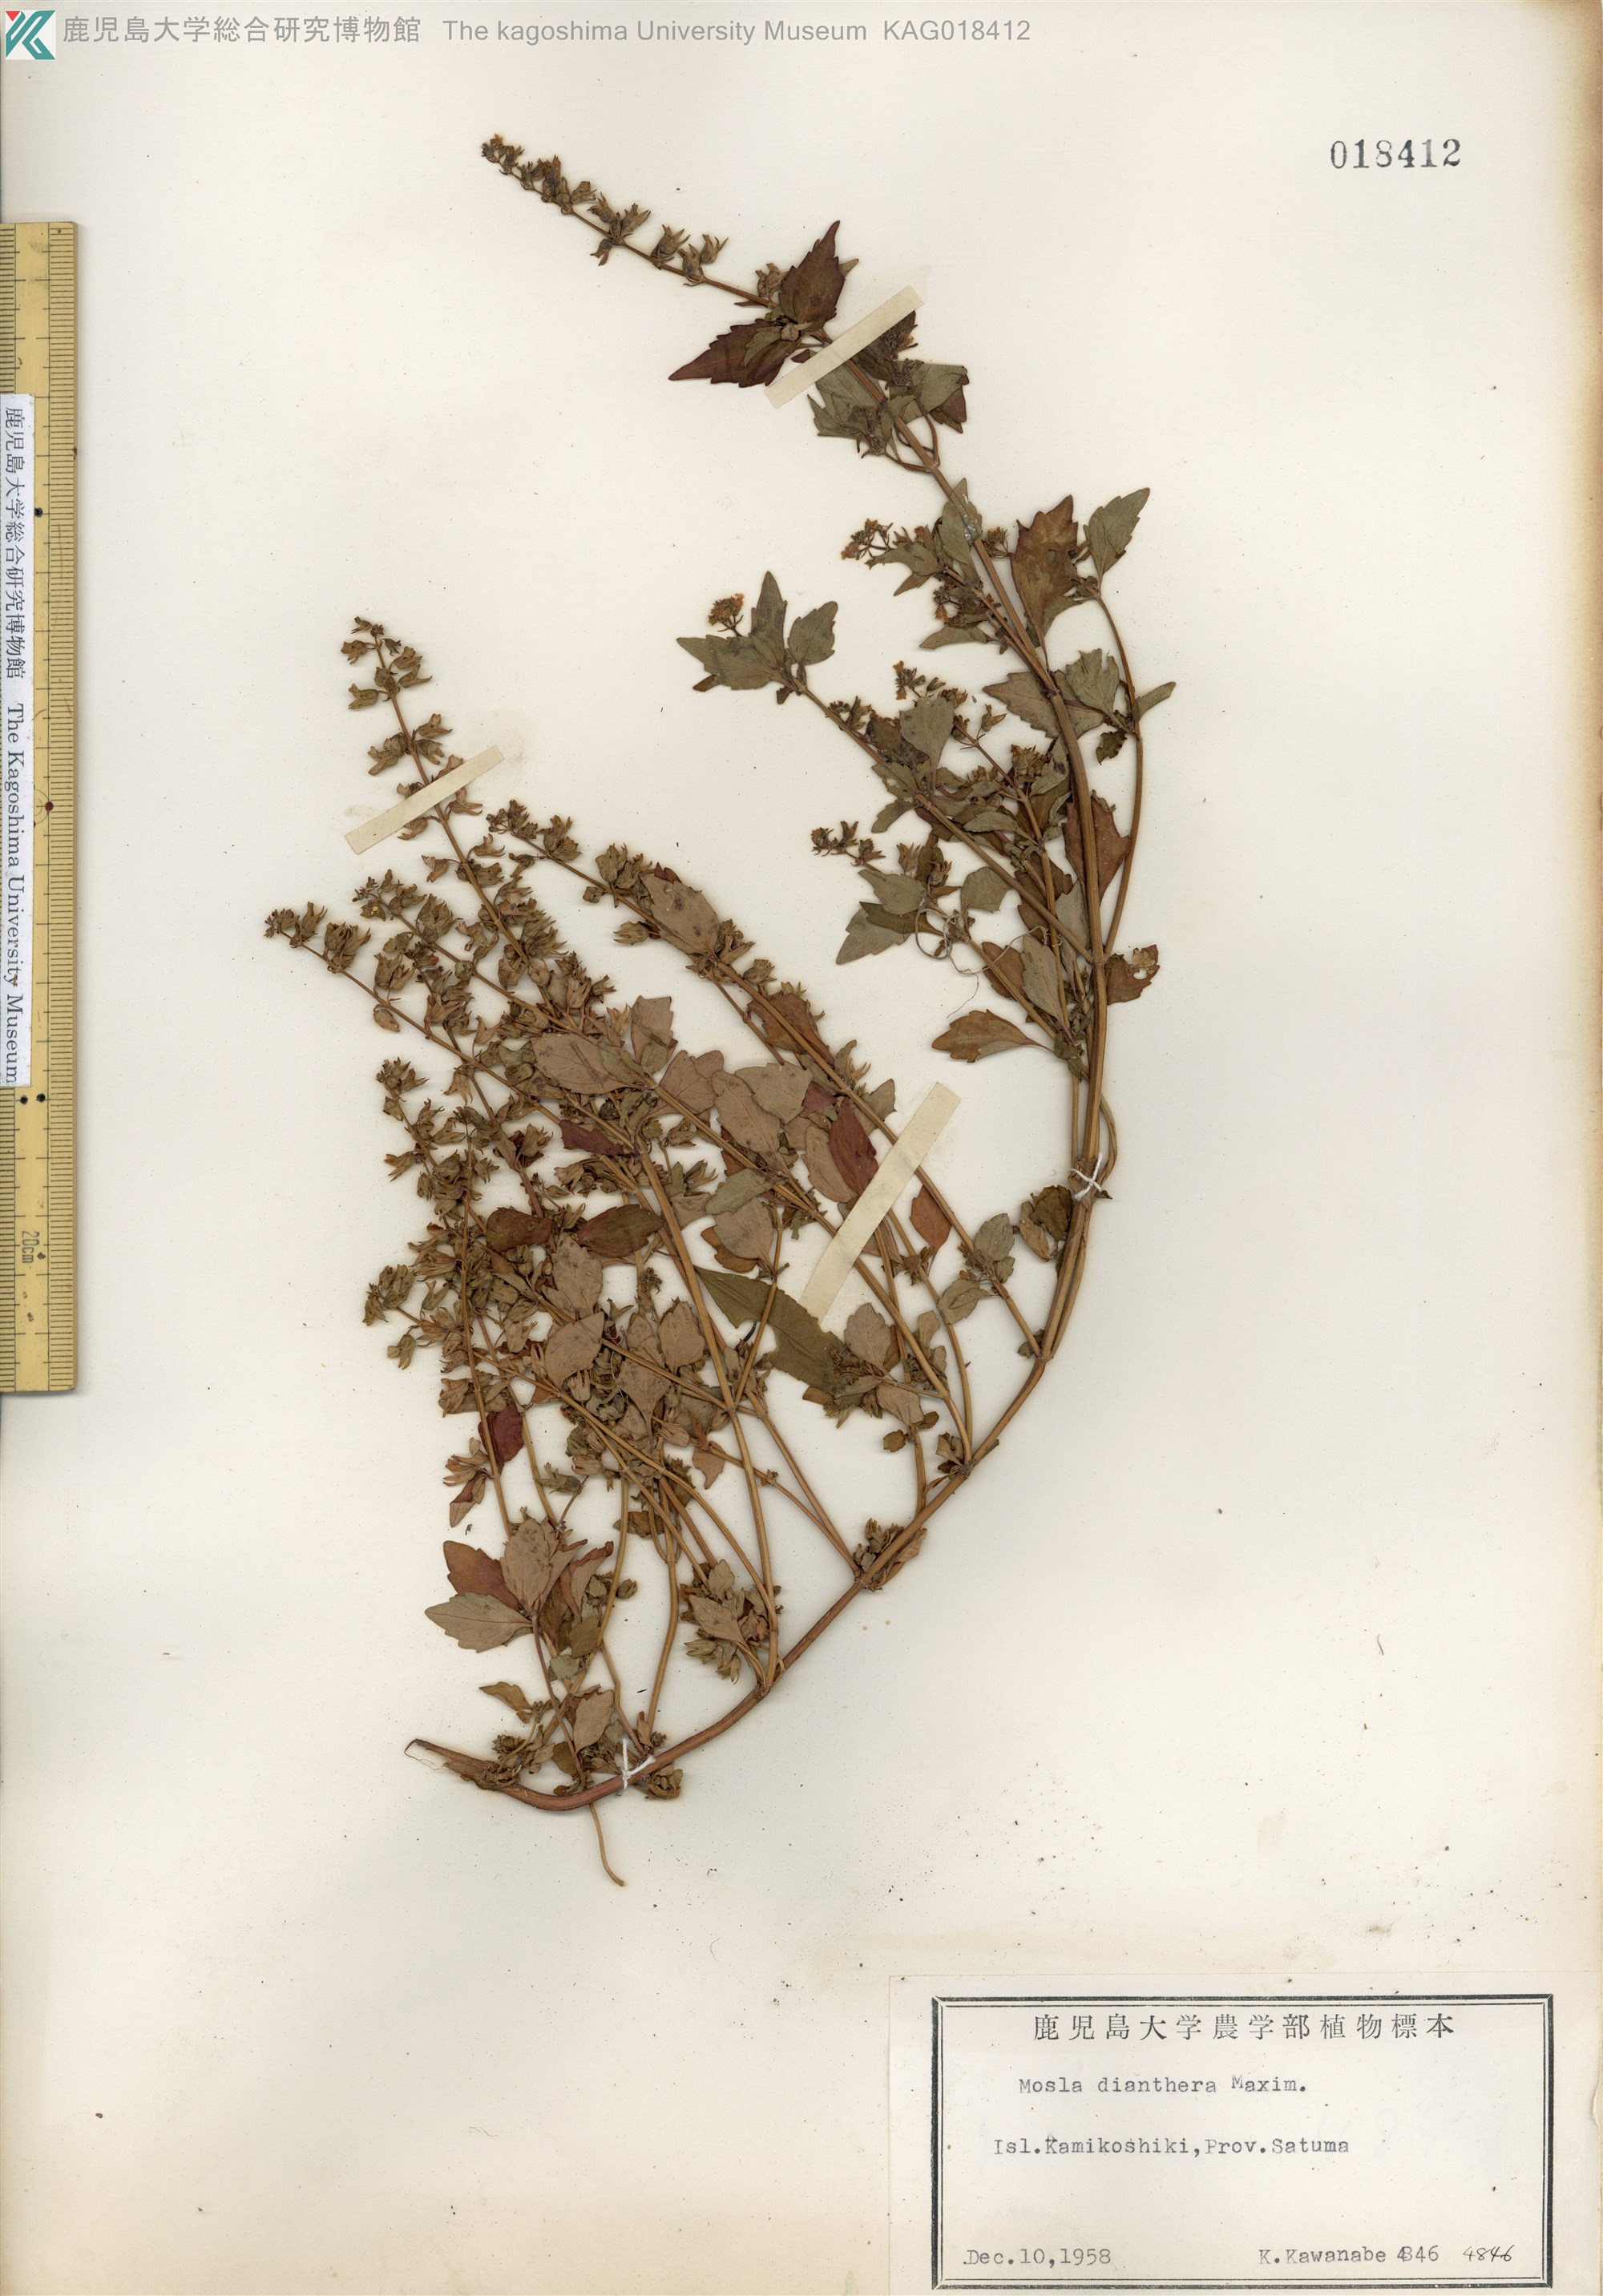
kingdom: Plantae
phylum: Tracheophyta
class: Magnoliopsida
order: Lamiales
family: Lamiaceae
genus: Mosla
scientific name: Mosla dianthera
